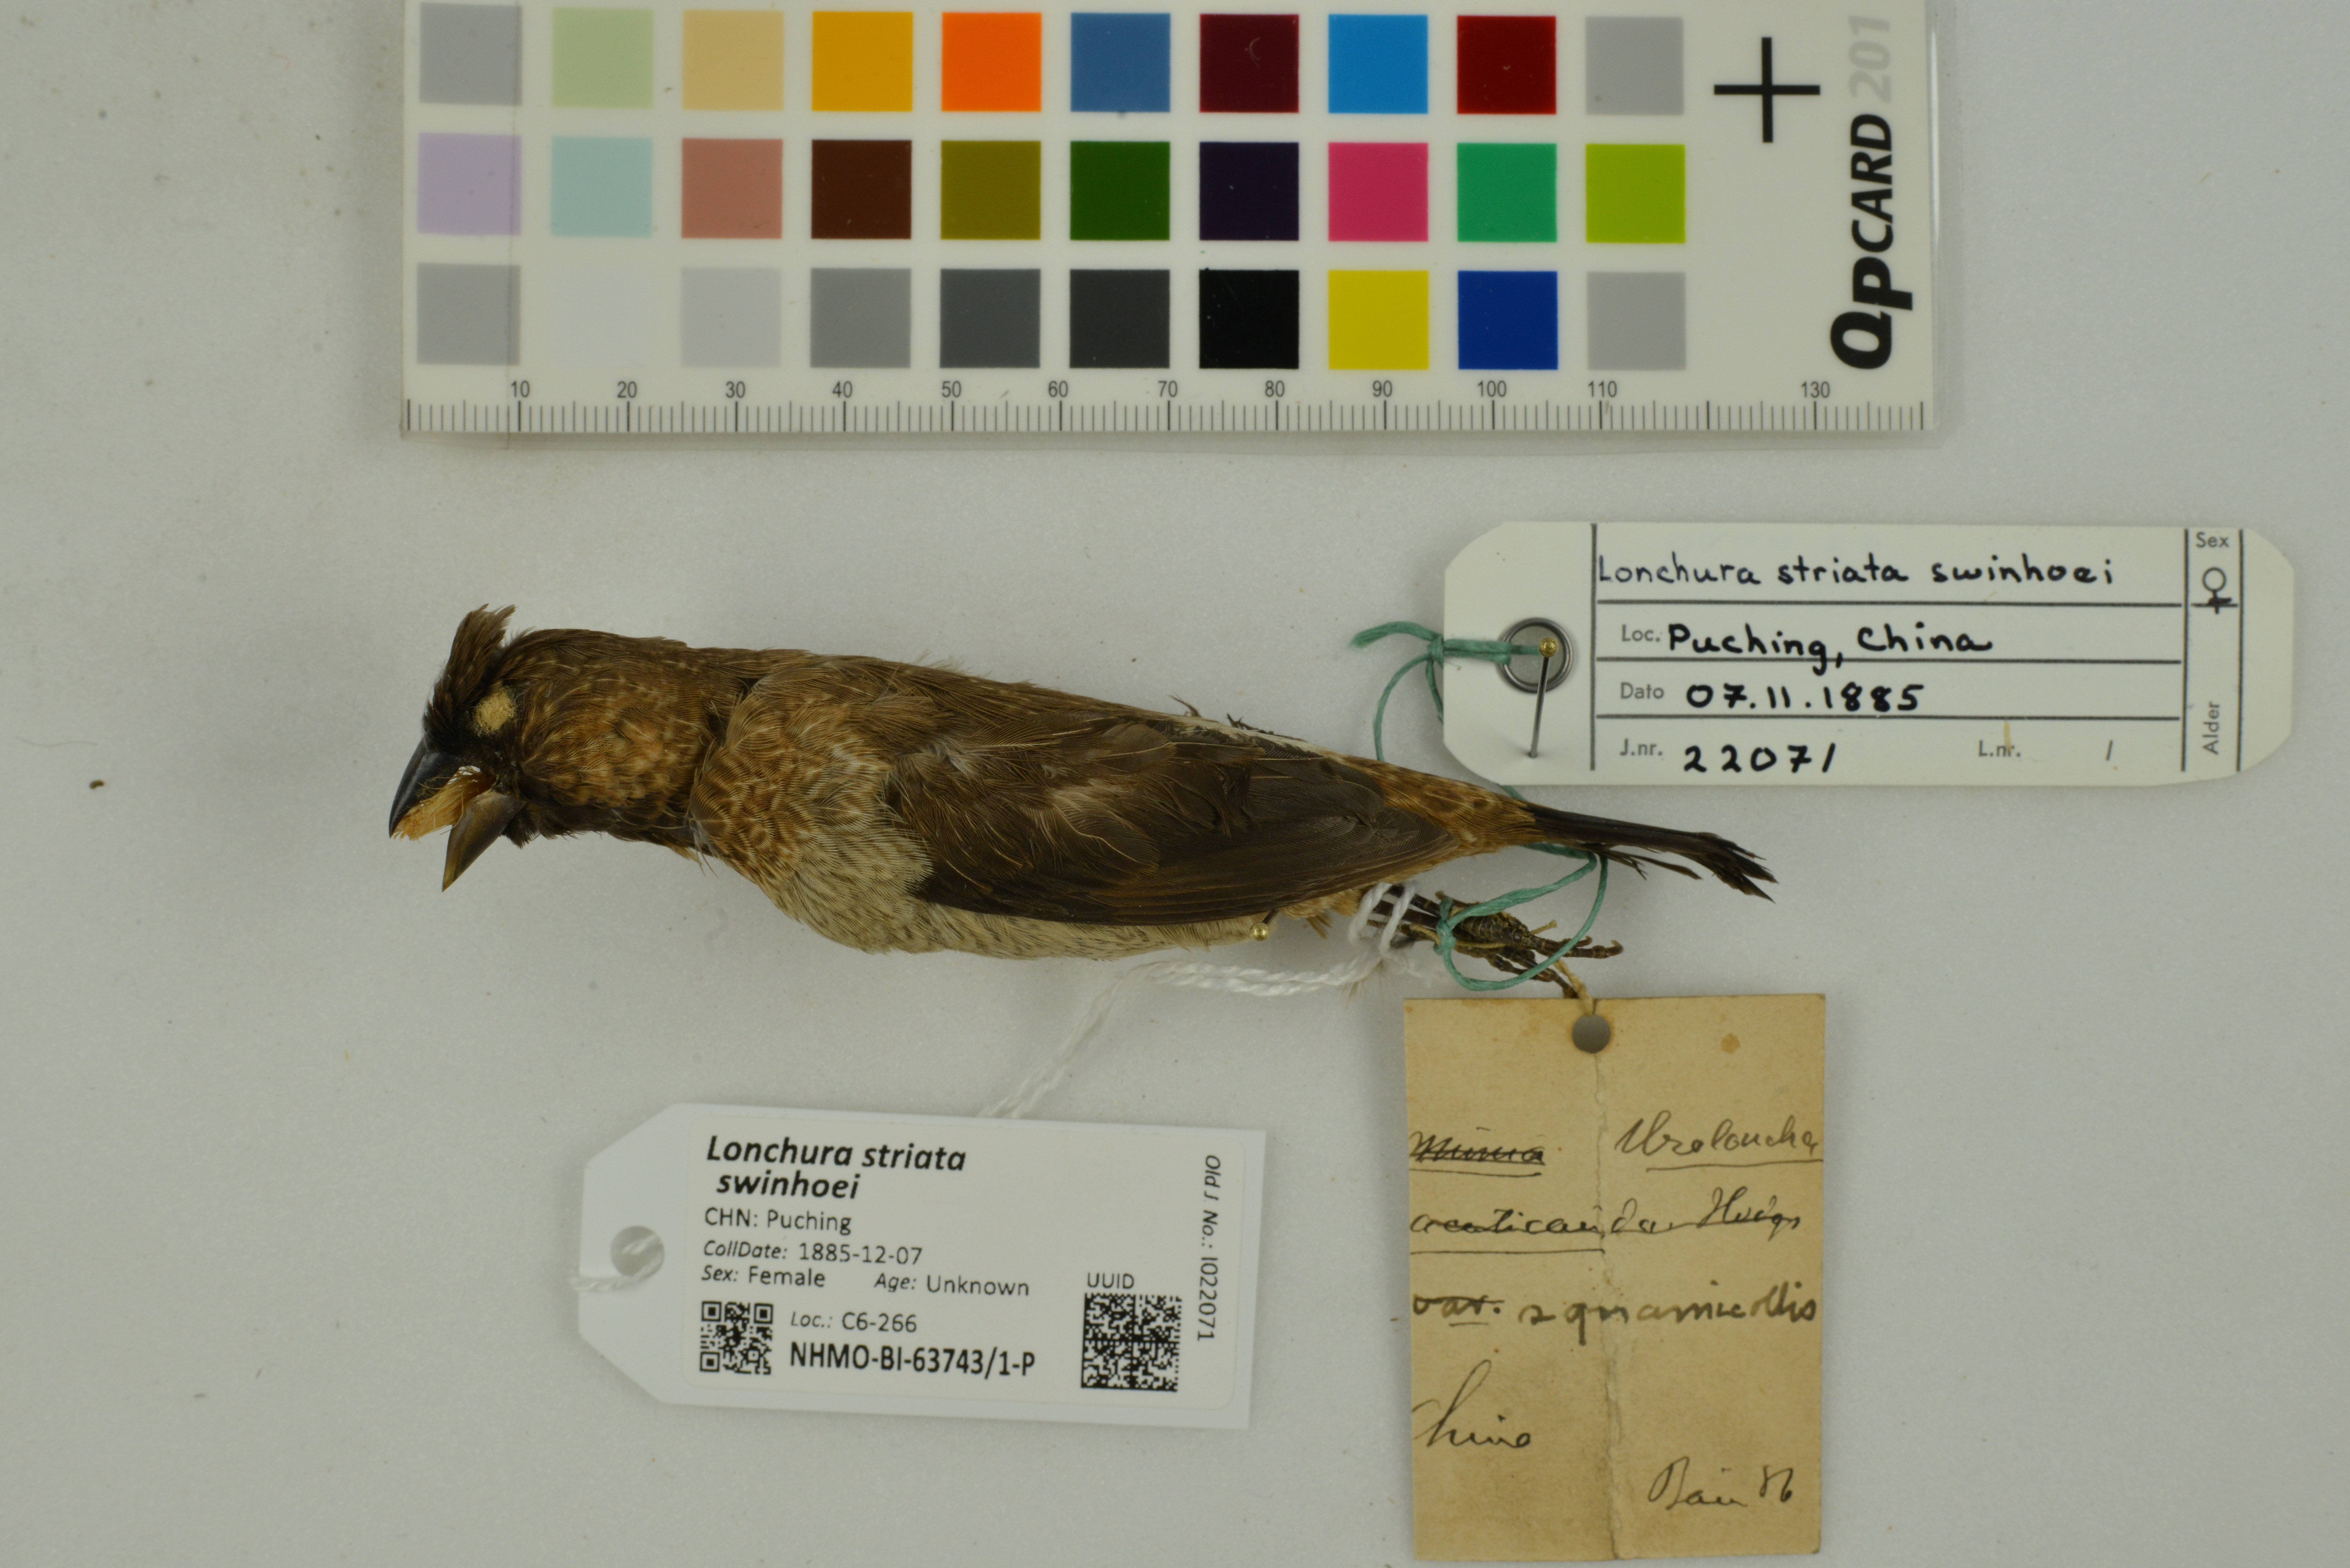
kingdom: Animalia
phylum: Chordata
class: Aves
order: Passeriformes
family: Estrildidae
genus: Lonchura
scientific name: Lonchura striata
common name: White-rumped munia
